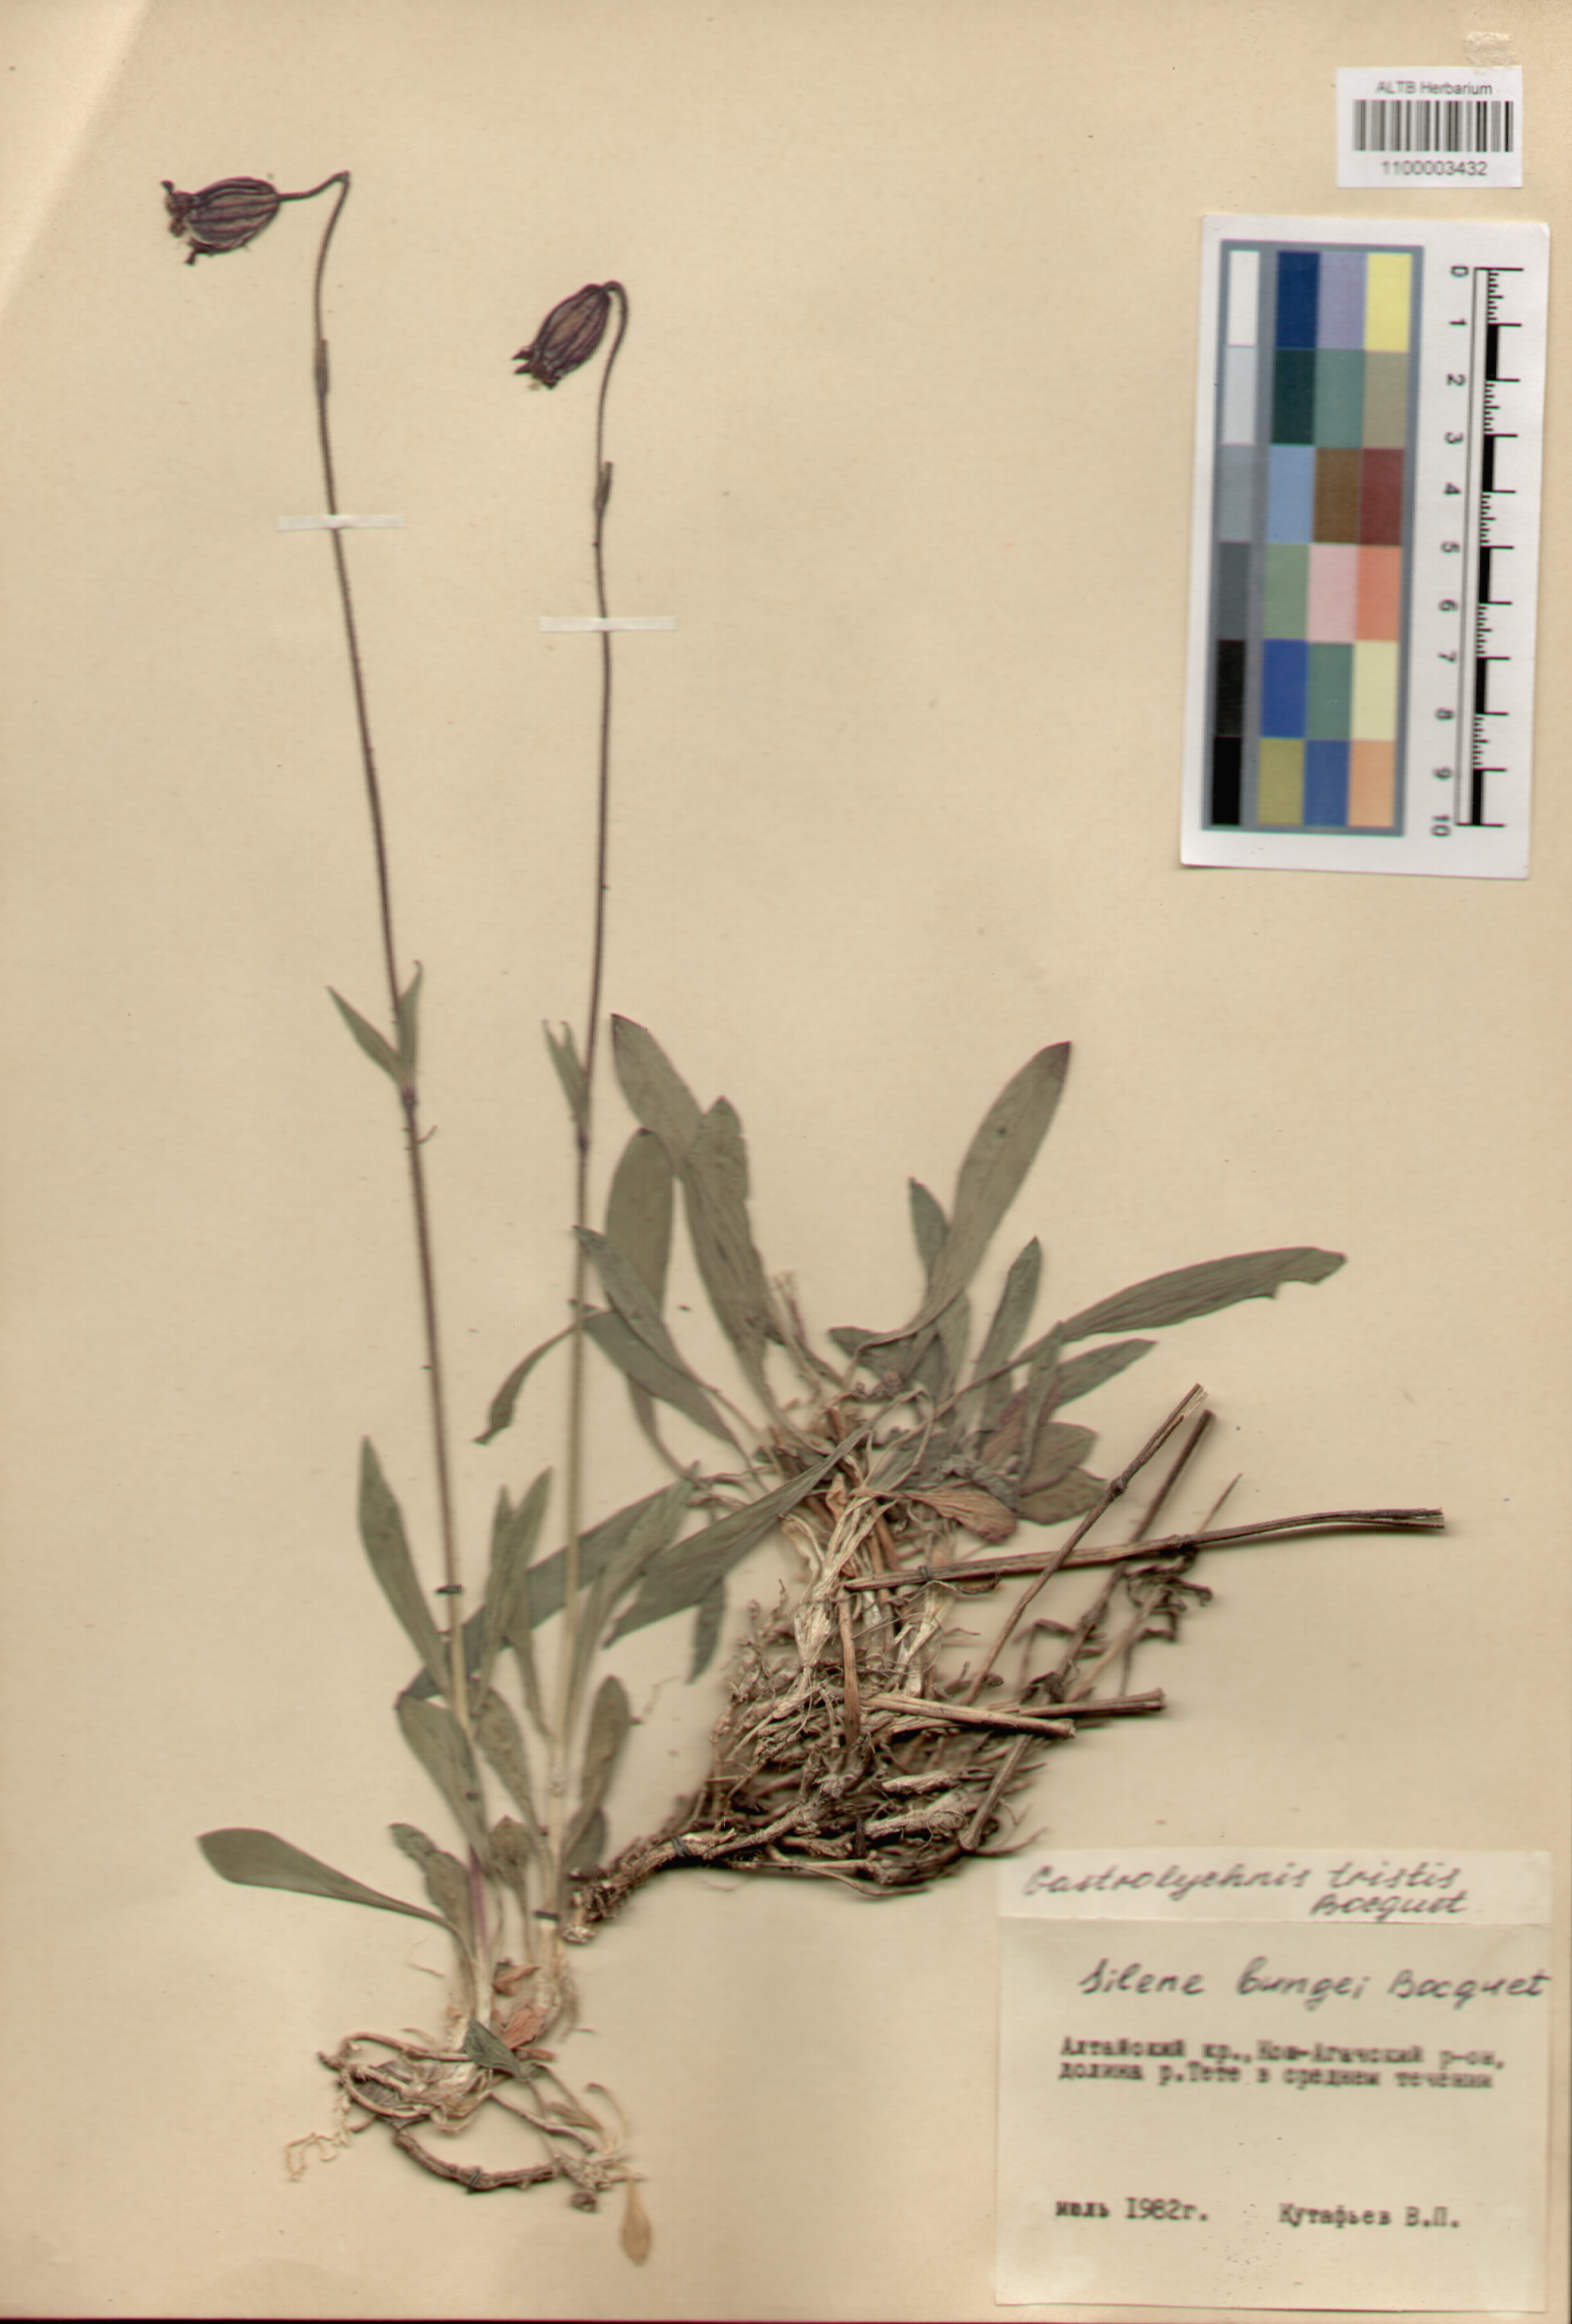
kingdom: Plantae
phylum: Tracheophyta
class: Magnoliopsida
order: Caryophyllales
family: Caryophyllaceae
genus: Silene
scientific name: Silene bungei
